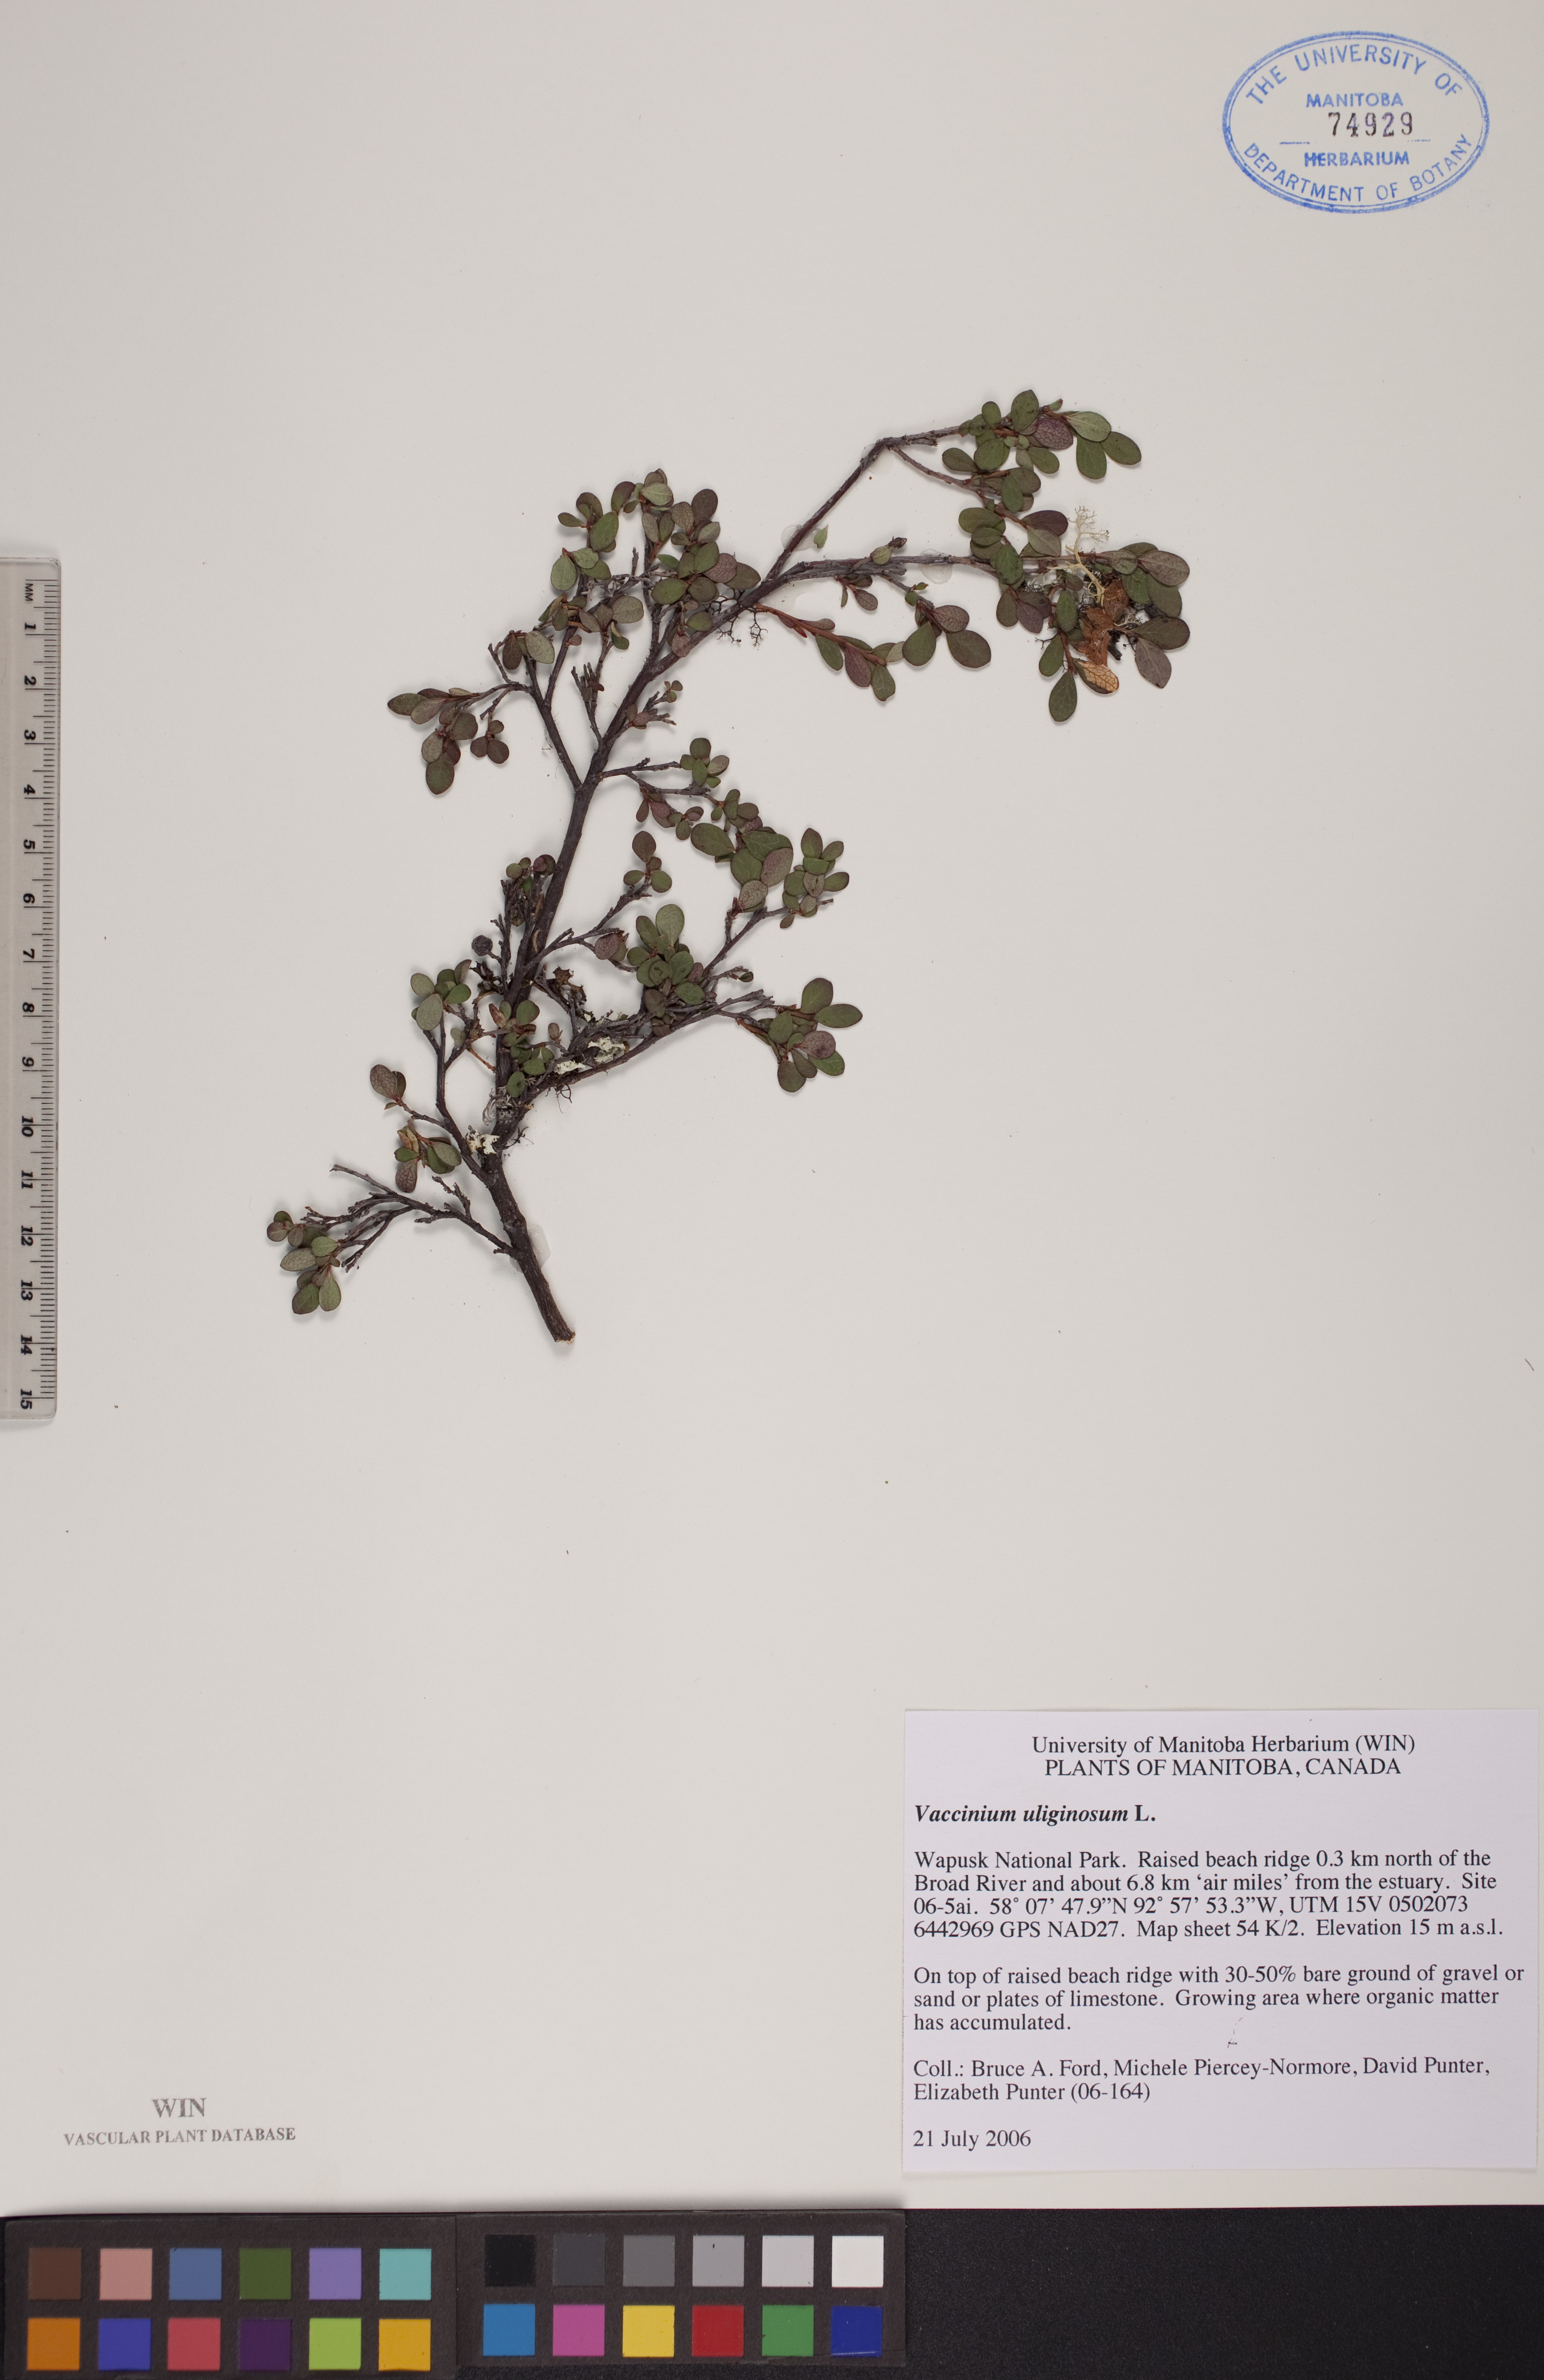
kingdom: Plantae
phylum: Tracheophyta
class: Magnoliopsida
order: Ericales
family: Ericaceae
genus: Vaccinium
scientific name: Vaccinium uliginosum
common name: Bog bilberry
